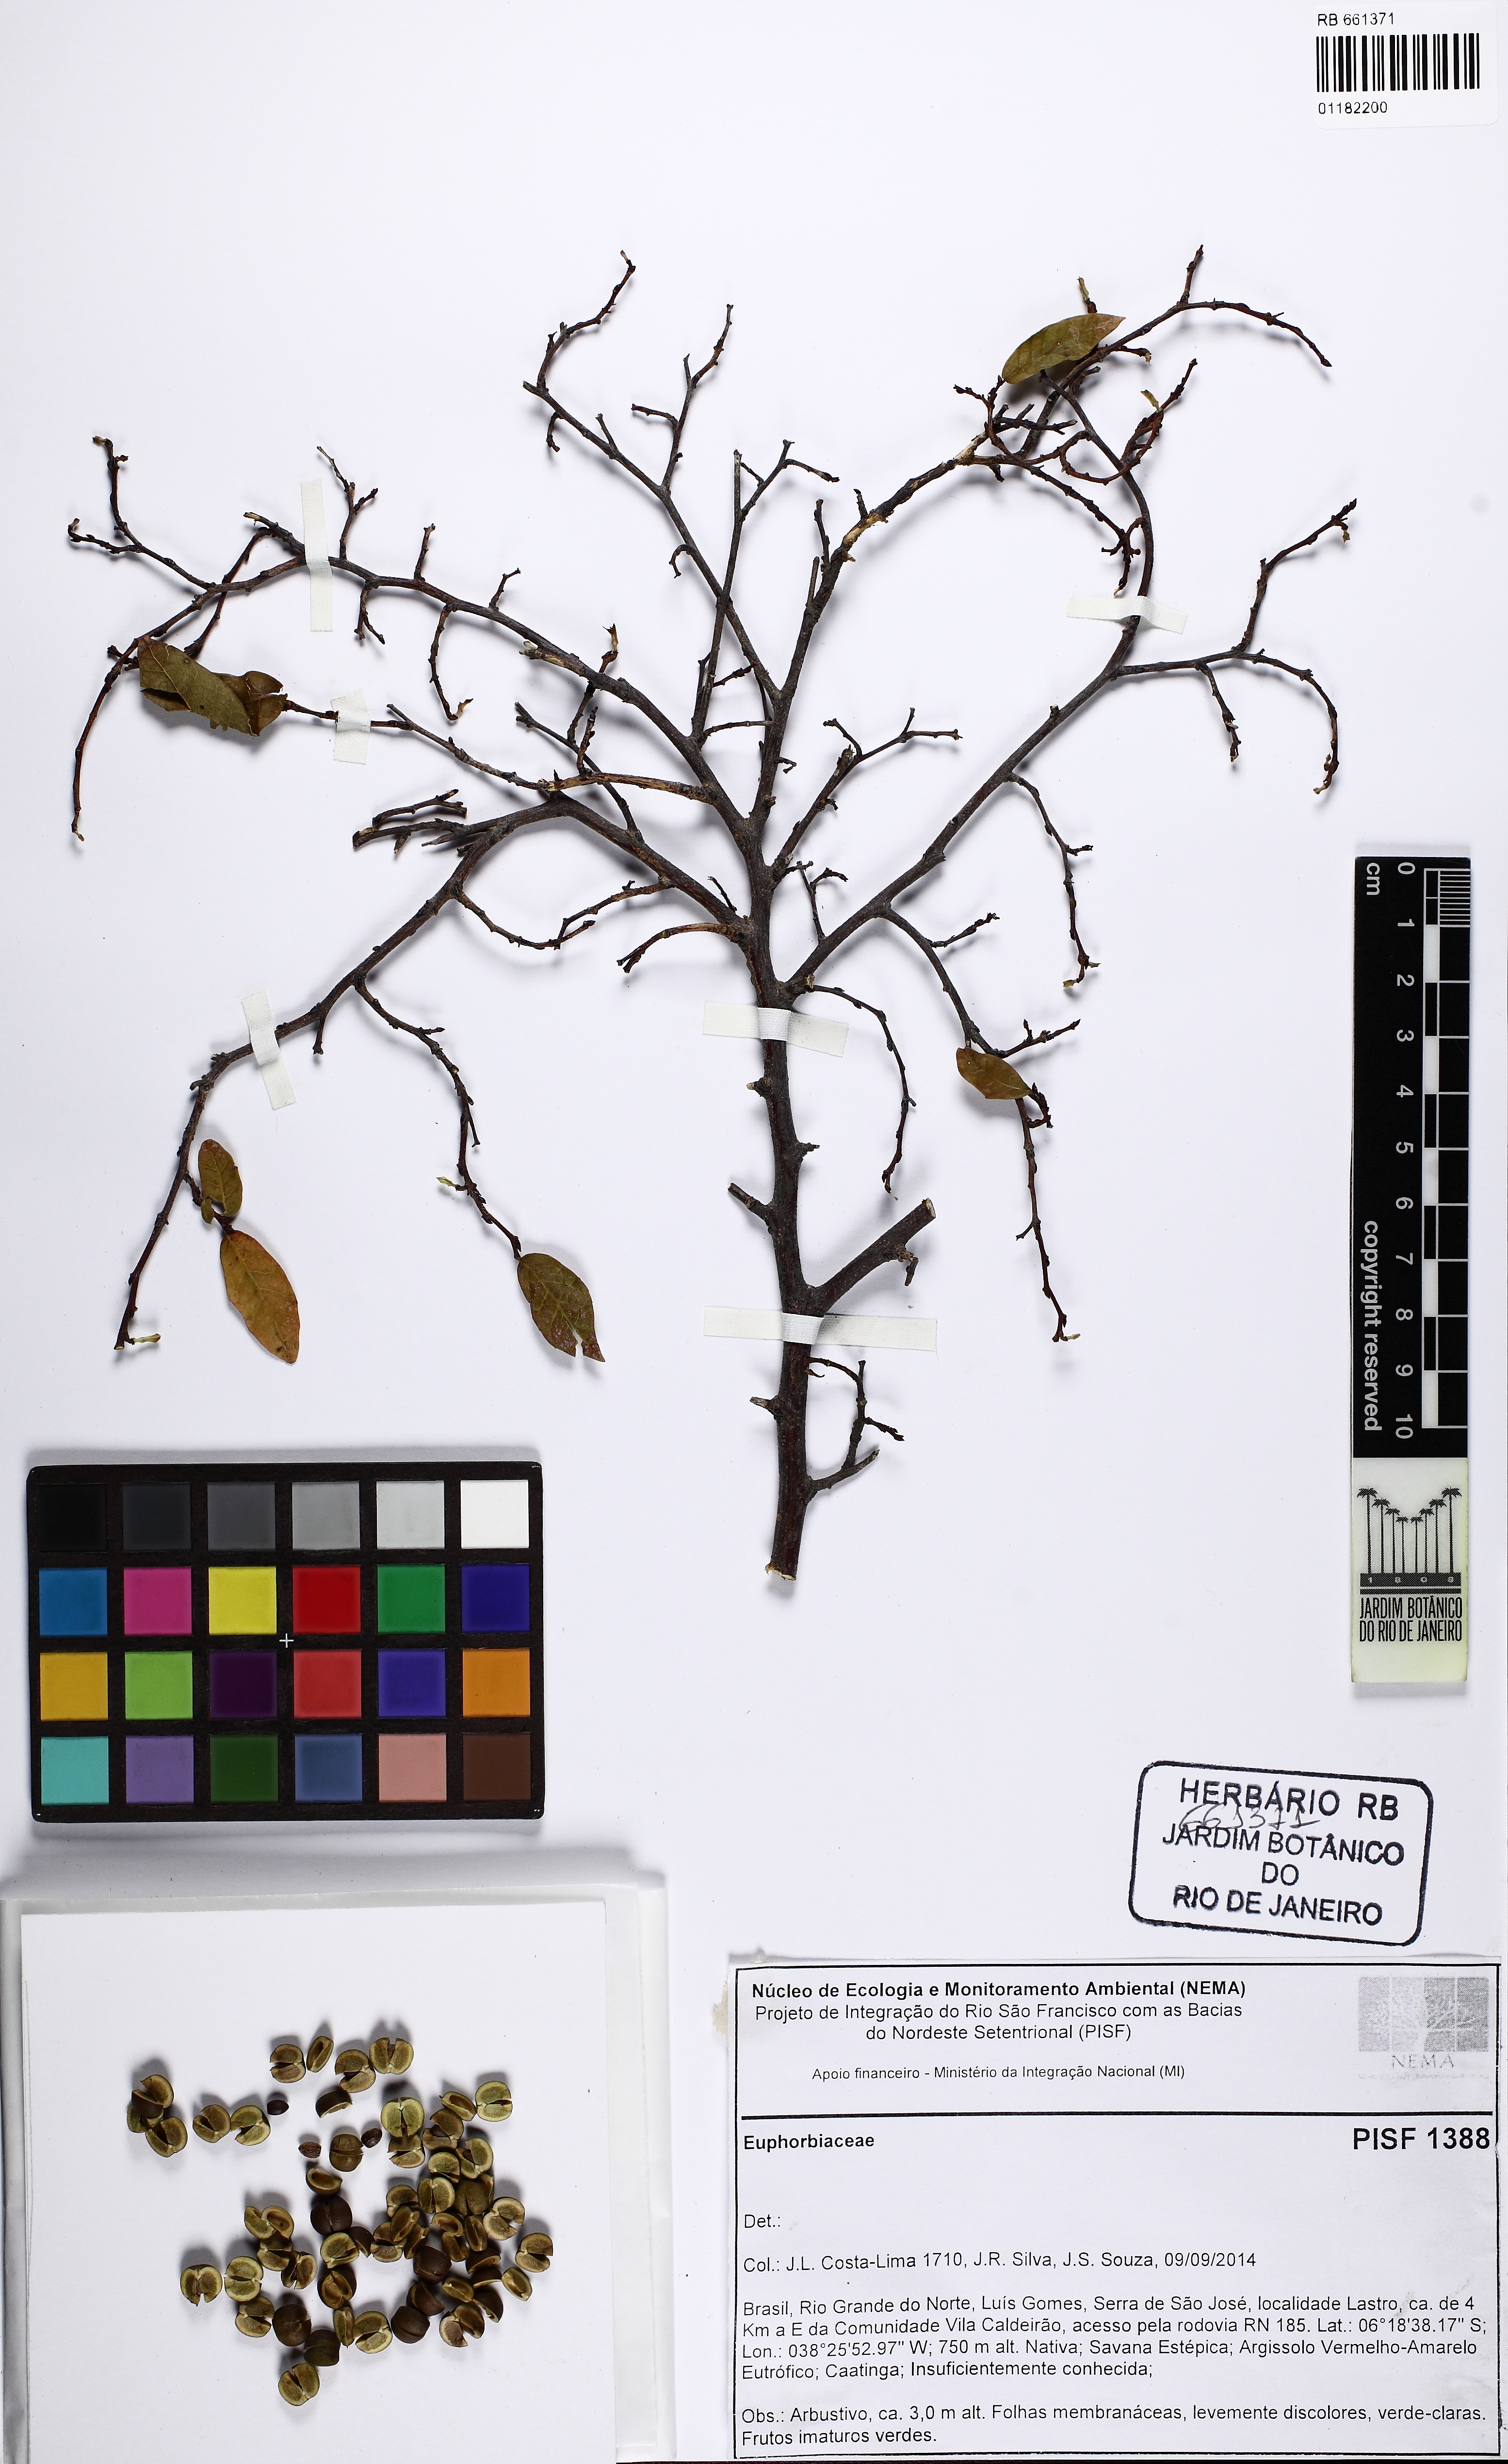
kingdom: Plantae
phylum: Tracheophyta
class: Magnoliopsida
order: Malpighiales
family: Euphorbiaceae
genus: Gymnanthes
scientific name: Gymnanthes boticario
